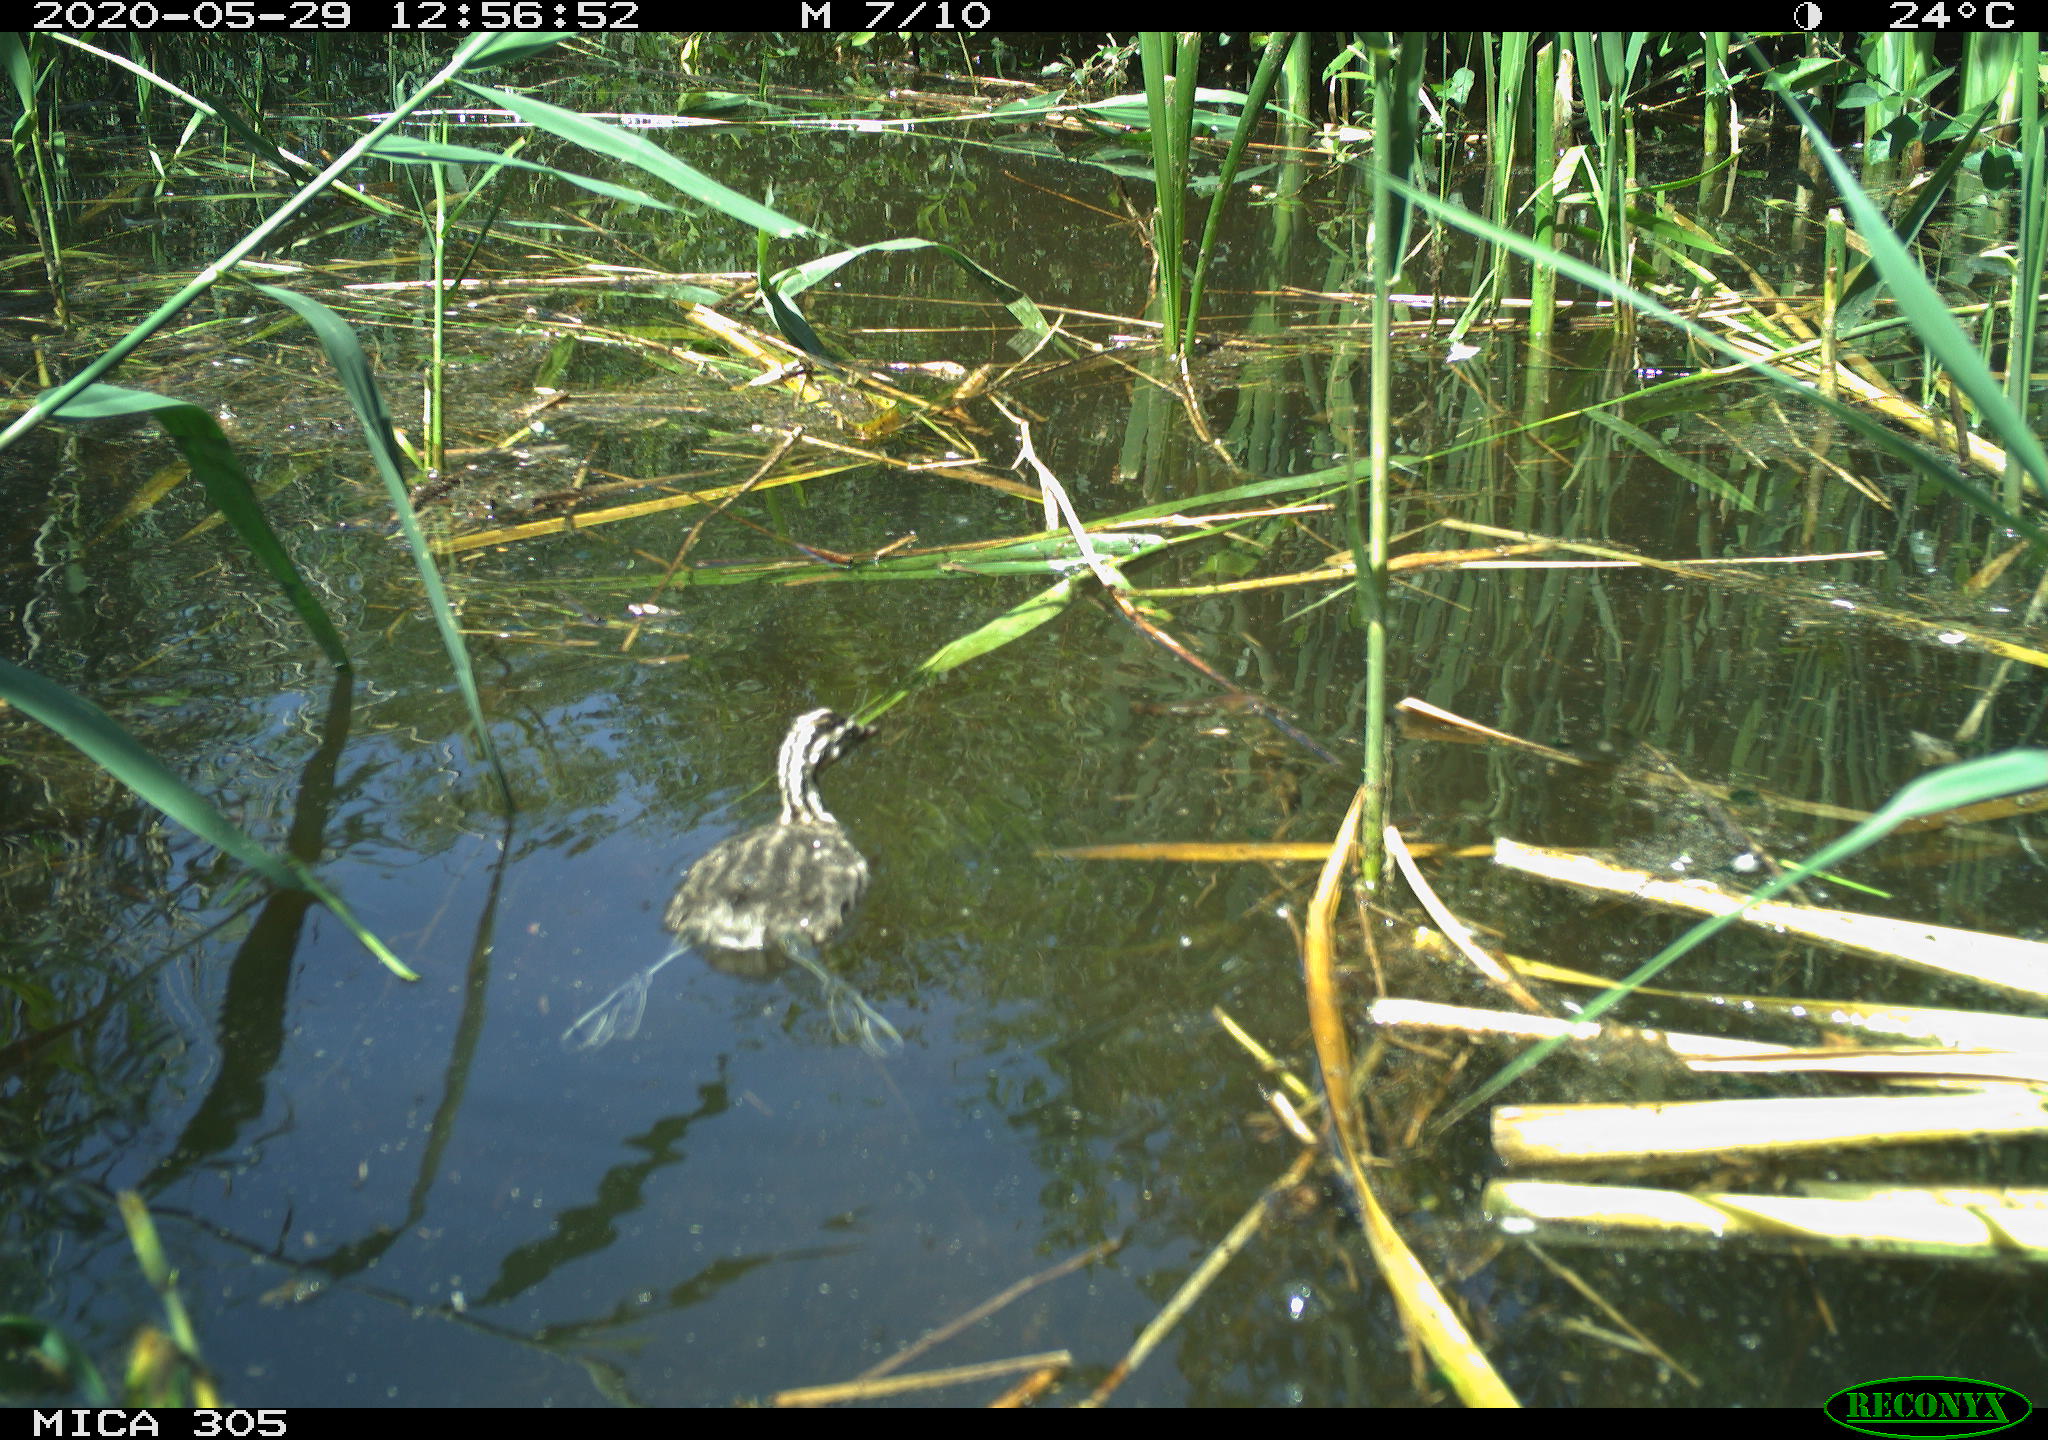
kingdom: Animalia
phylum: Chordata
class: Aves
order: Podicipediformes
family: Podicipedidae
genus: Podiceps
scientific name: Podiceps cristatus
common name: Great crested grebe
